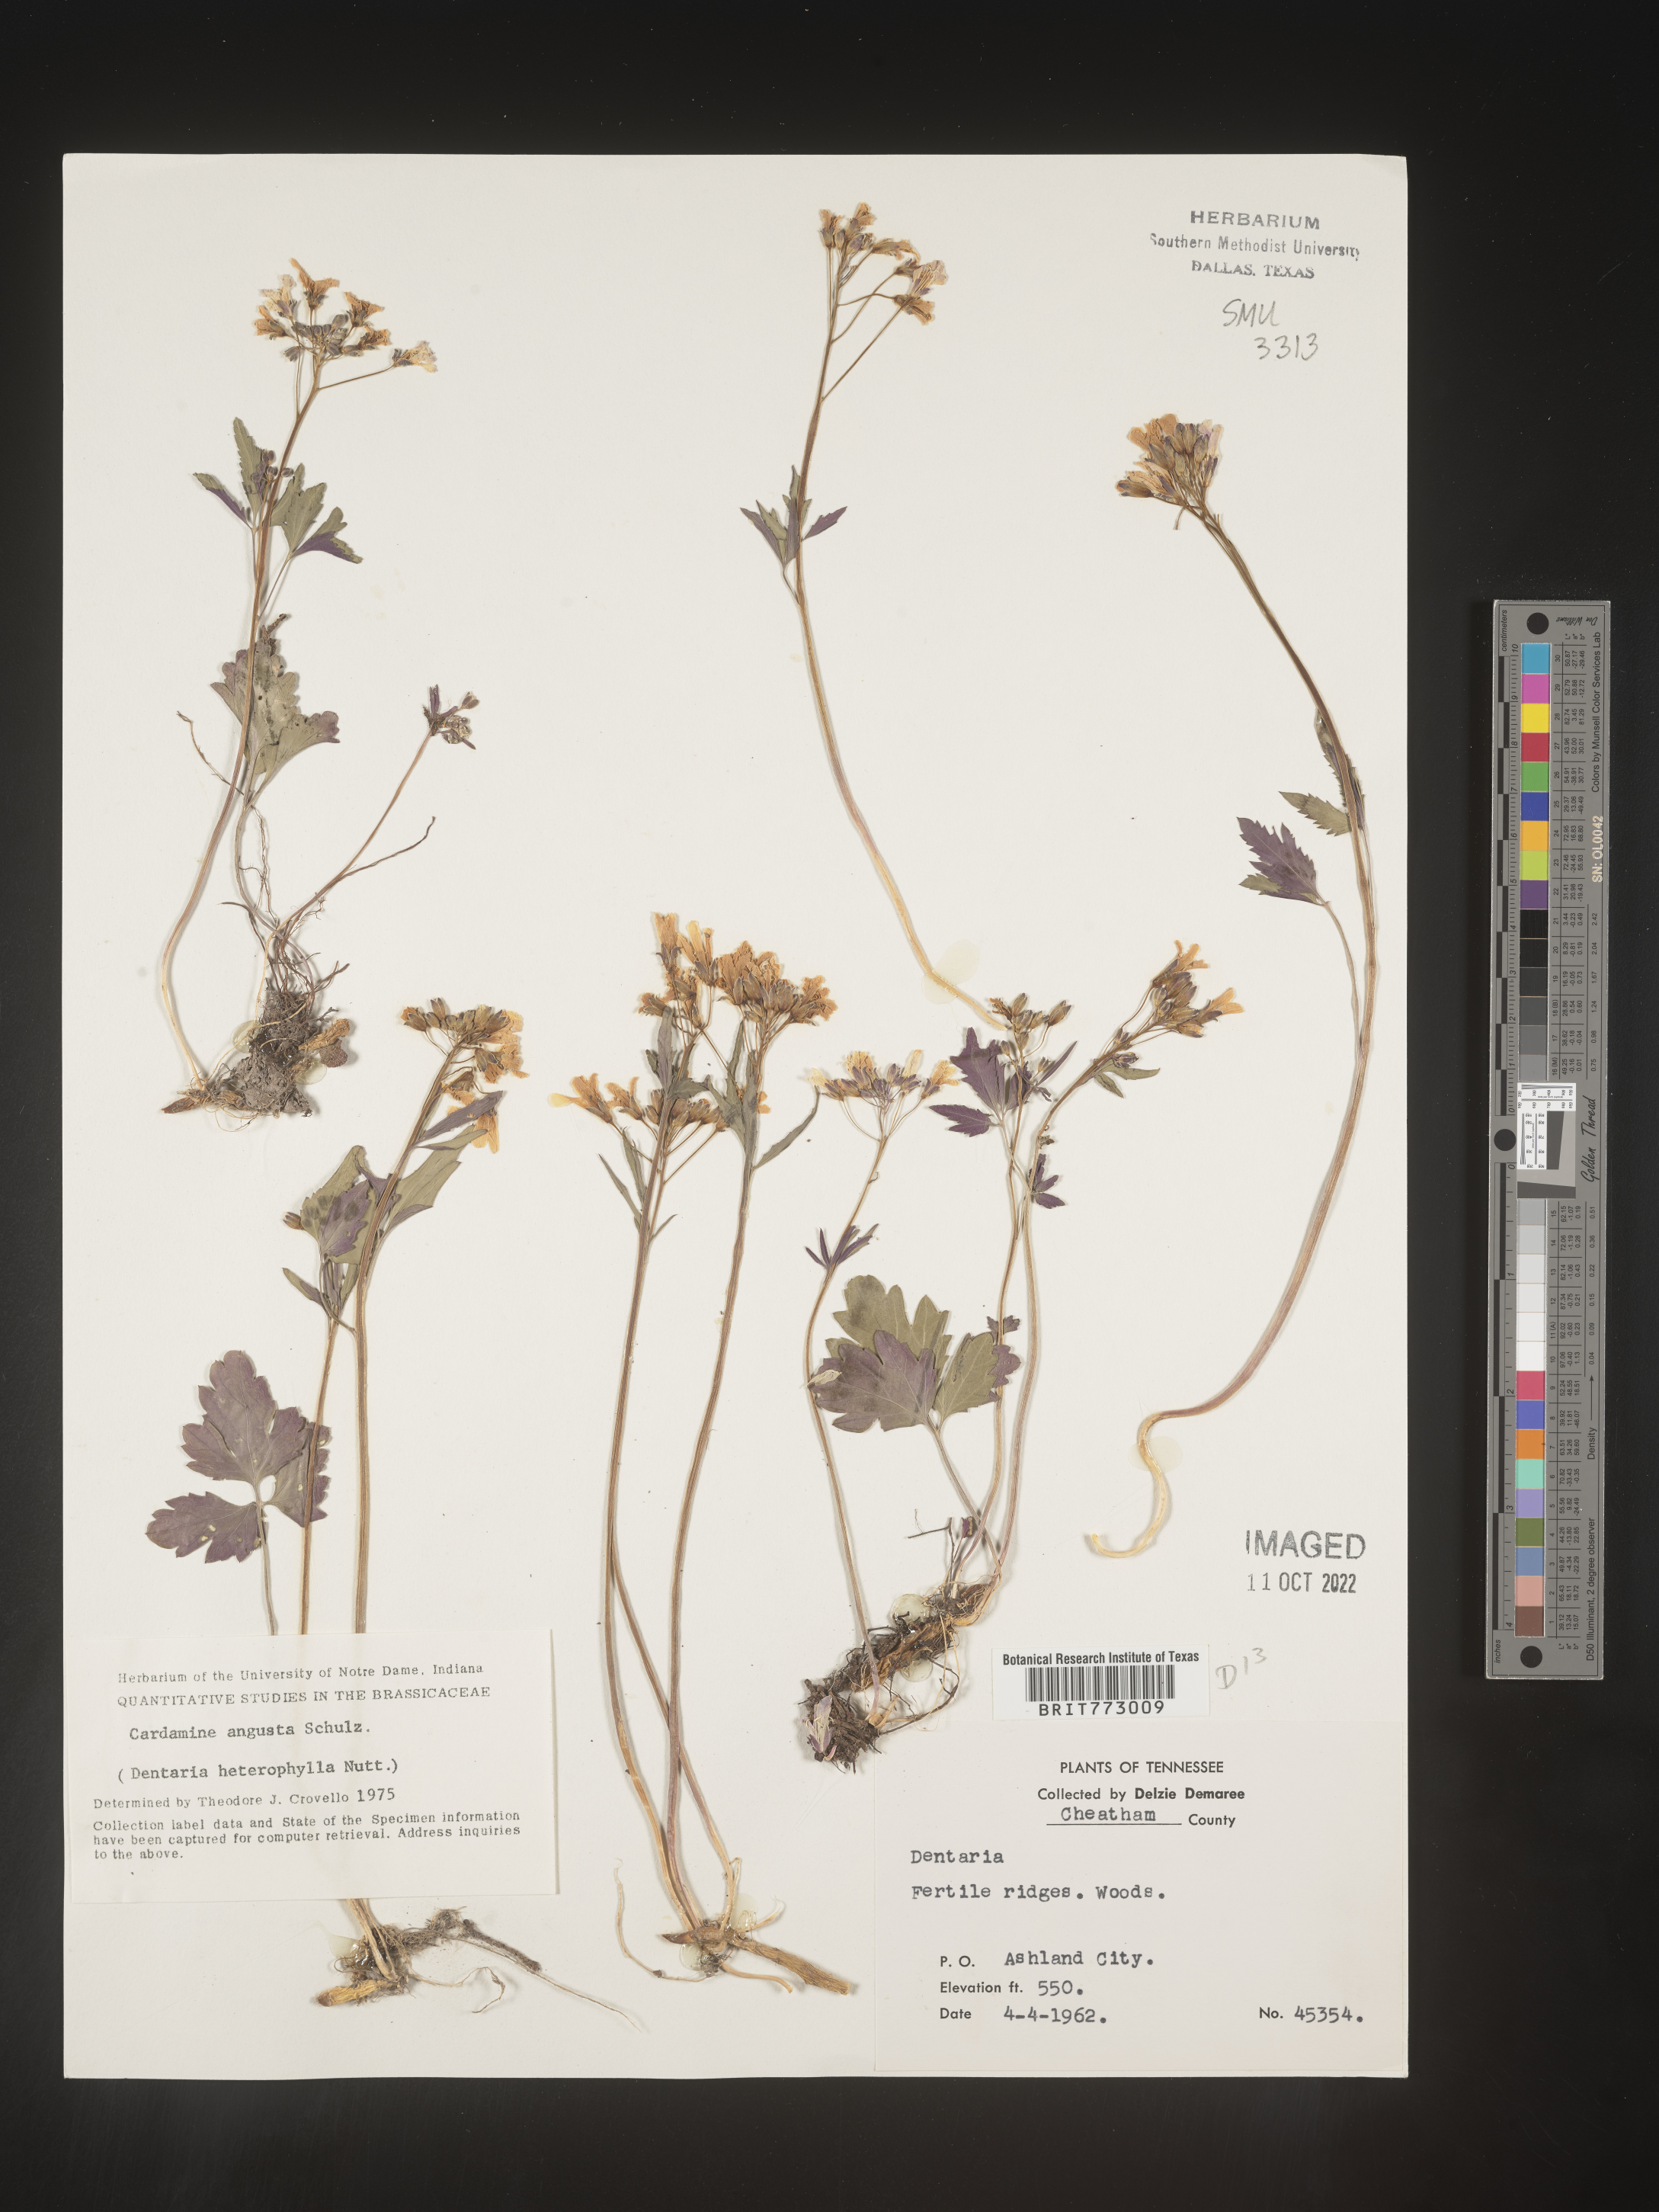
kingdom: Plantae
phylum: Tracheophyta
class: Magnoliopsida
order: Brassicales
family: Brassicaceae
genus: Cardamine
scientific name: Cardamine angustata
